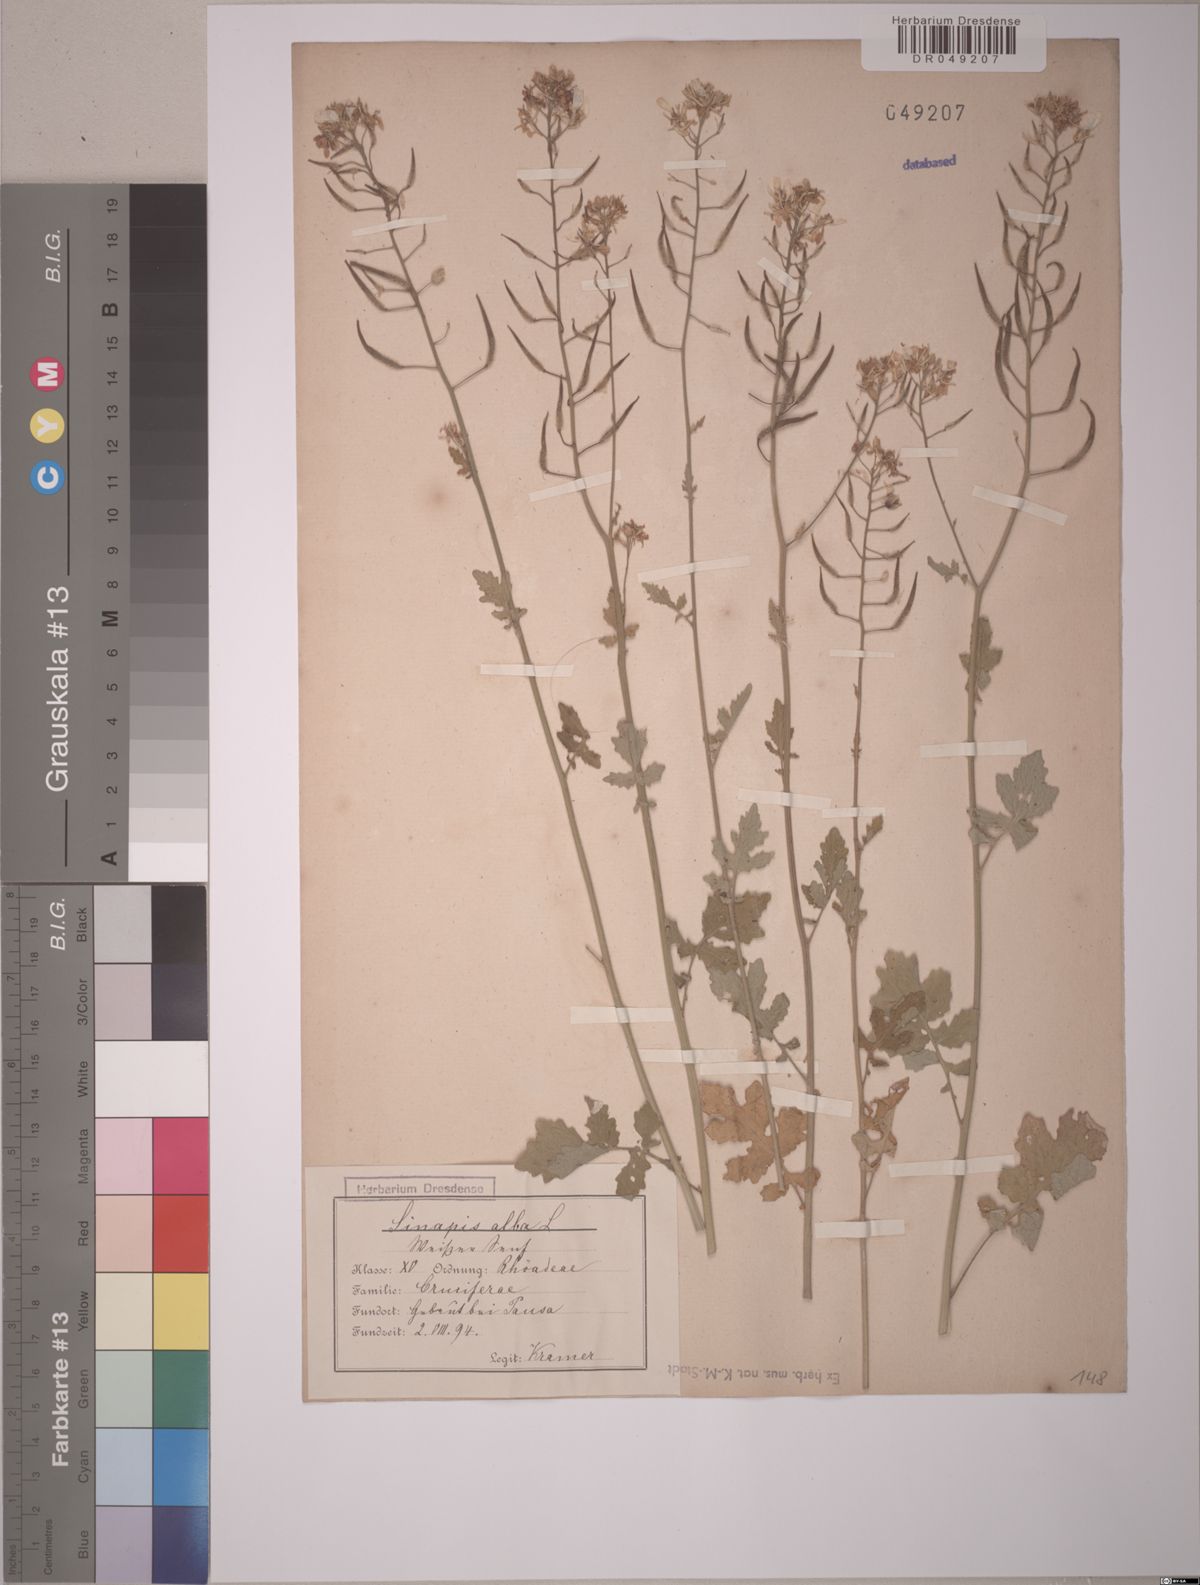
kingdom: Plantae
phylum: Tracheophyta
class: Magnoliopsida
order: Brassicales
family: Brassicaceae
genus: Sinapis
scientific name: Sinapis alba
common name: White mustard
